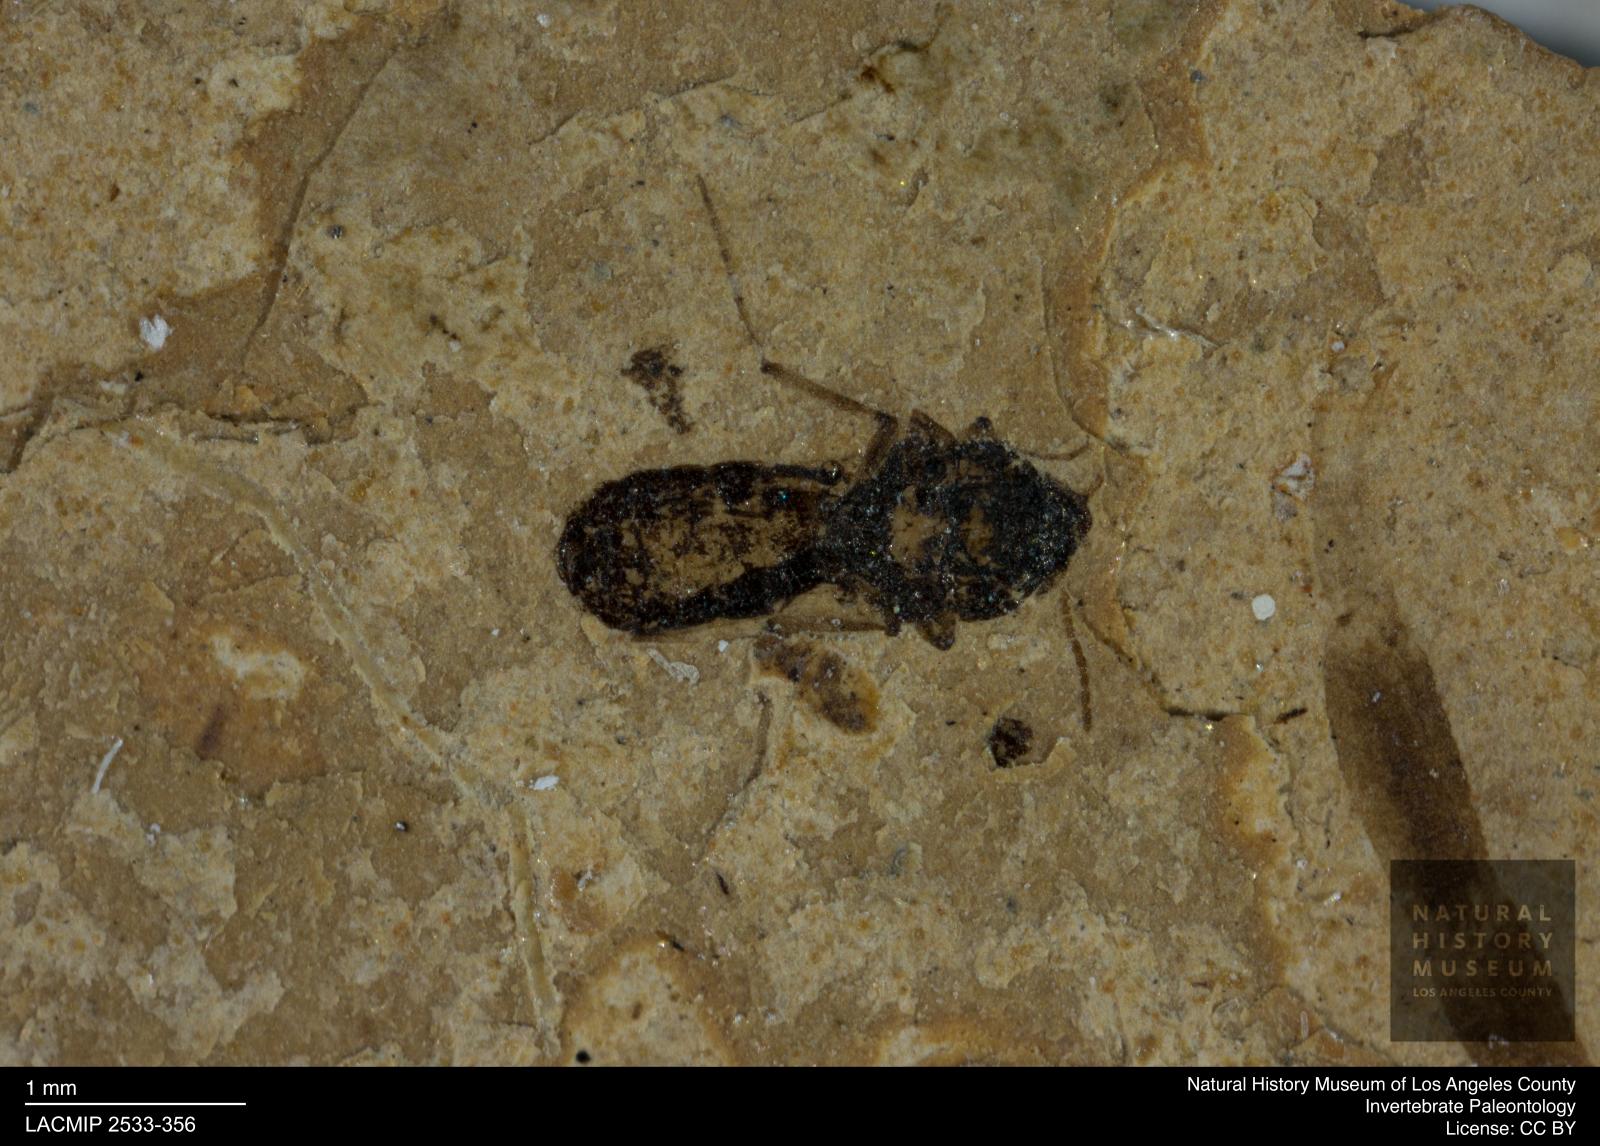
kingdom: Animalia
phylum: Arthropoda
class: Insecta
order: Diptera
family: Ceratopogonidae
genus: Culicoides
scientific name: Culicoides bicolor
